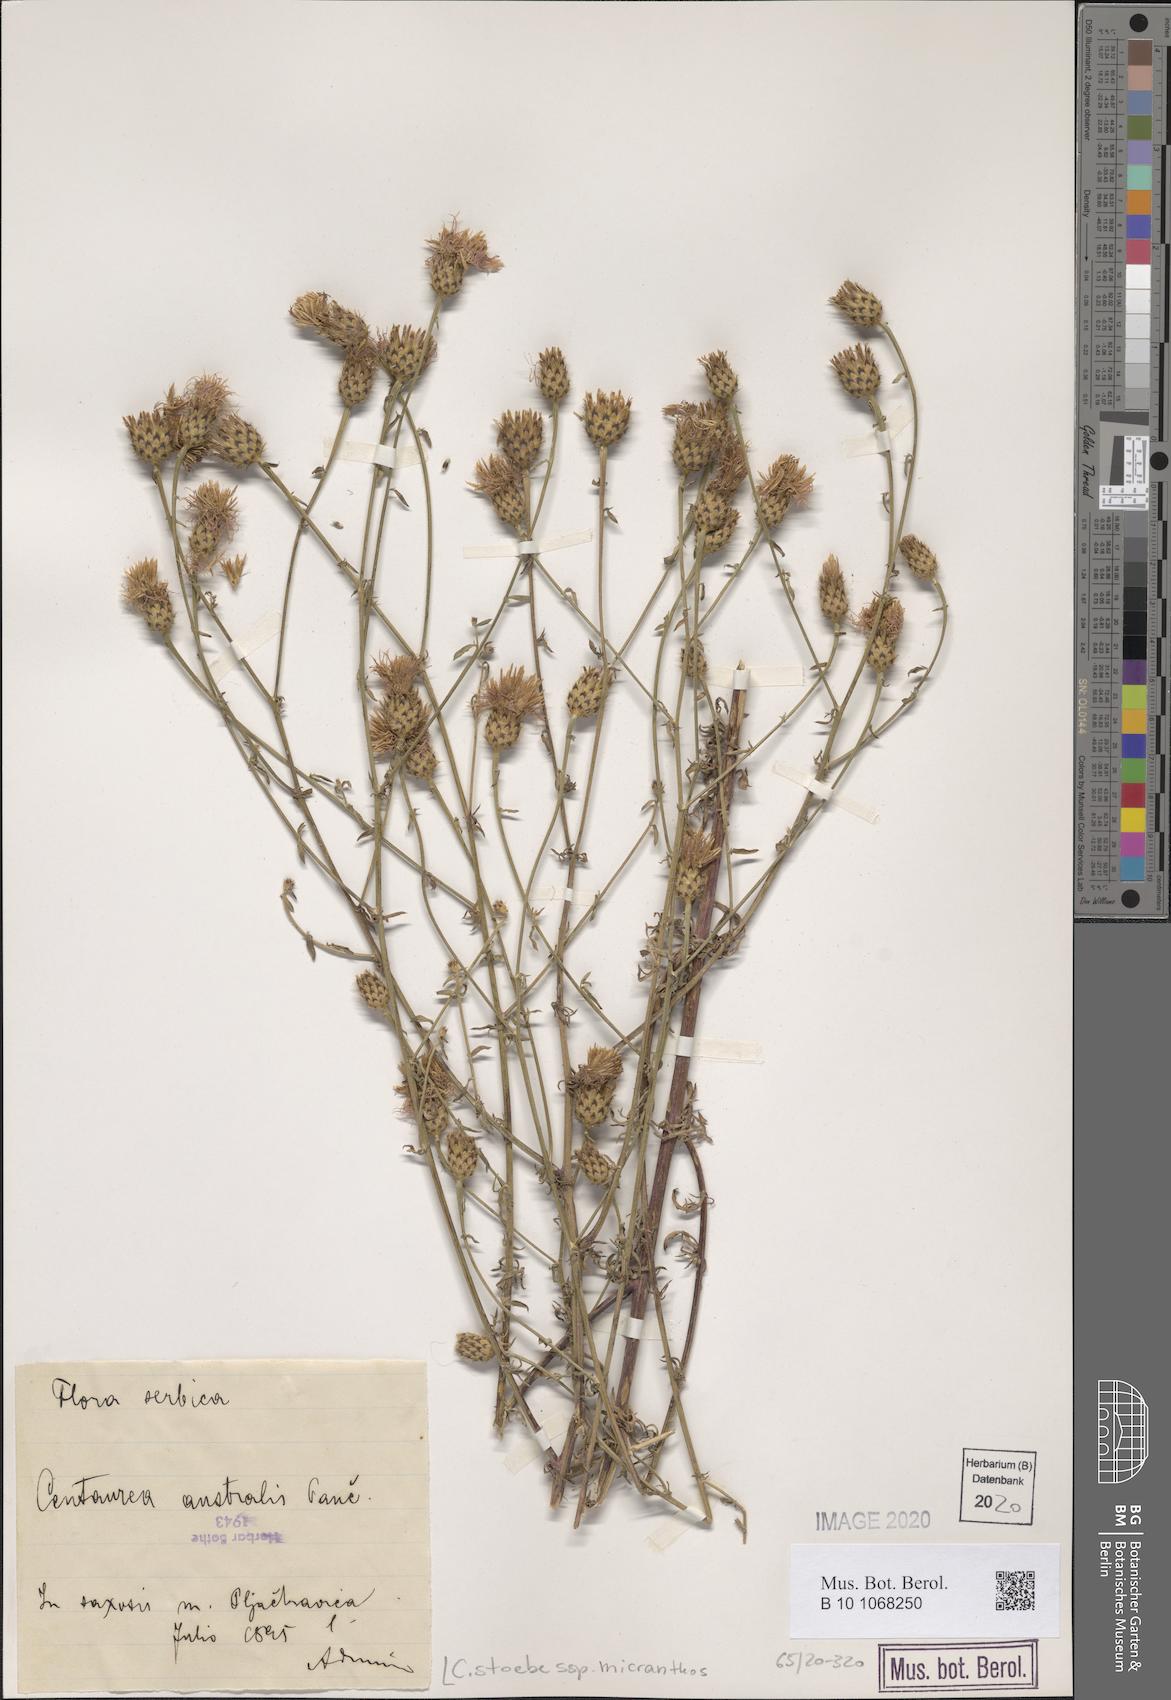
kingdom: Plantae
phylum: Tracheophyta
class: Magnoliopsida
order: Asterales
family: Asteraceae
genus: Centaurea
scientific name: Centaurea australis
